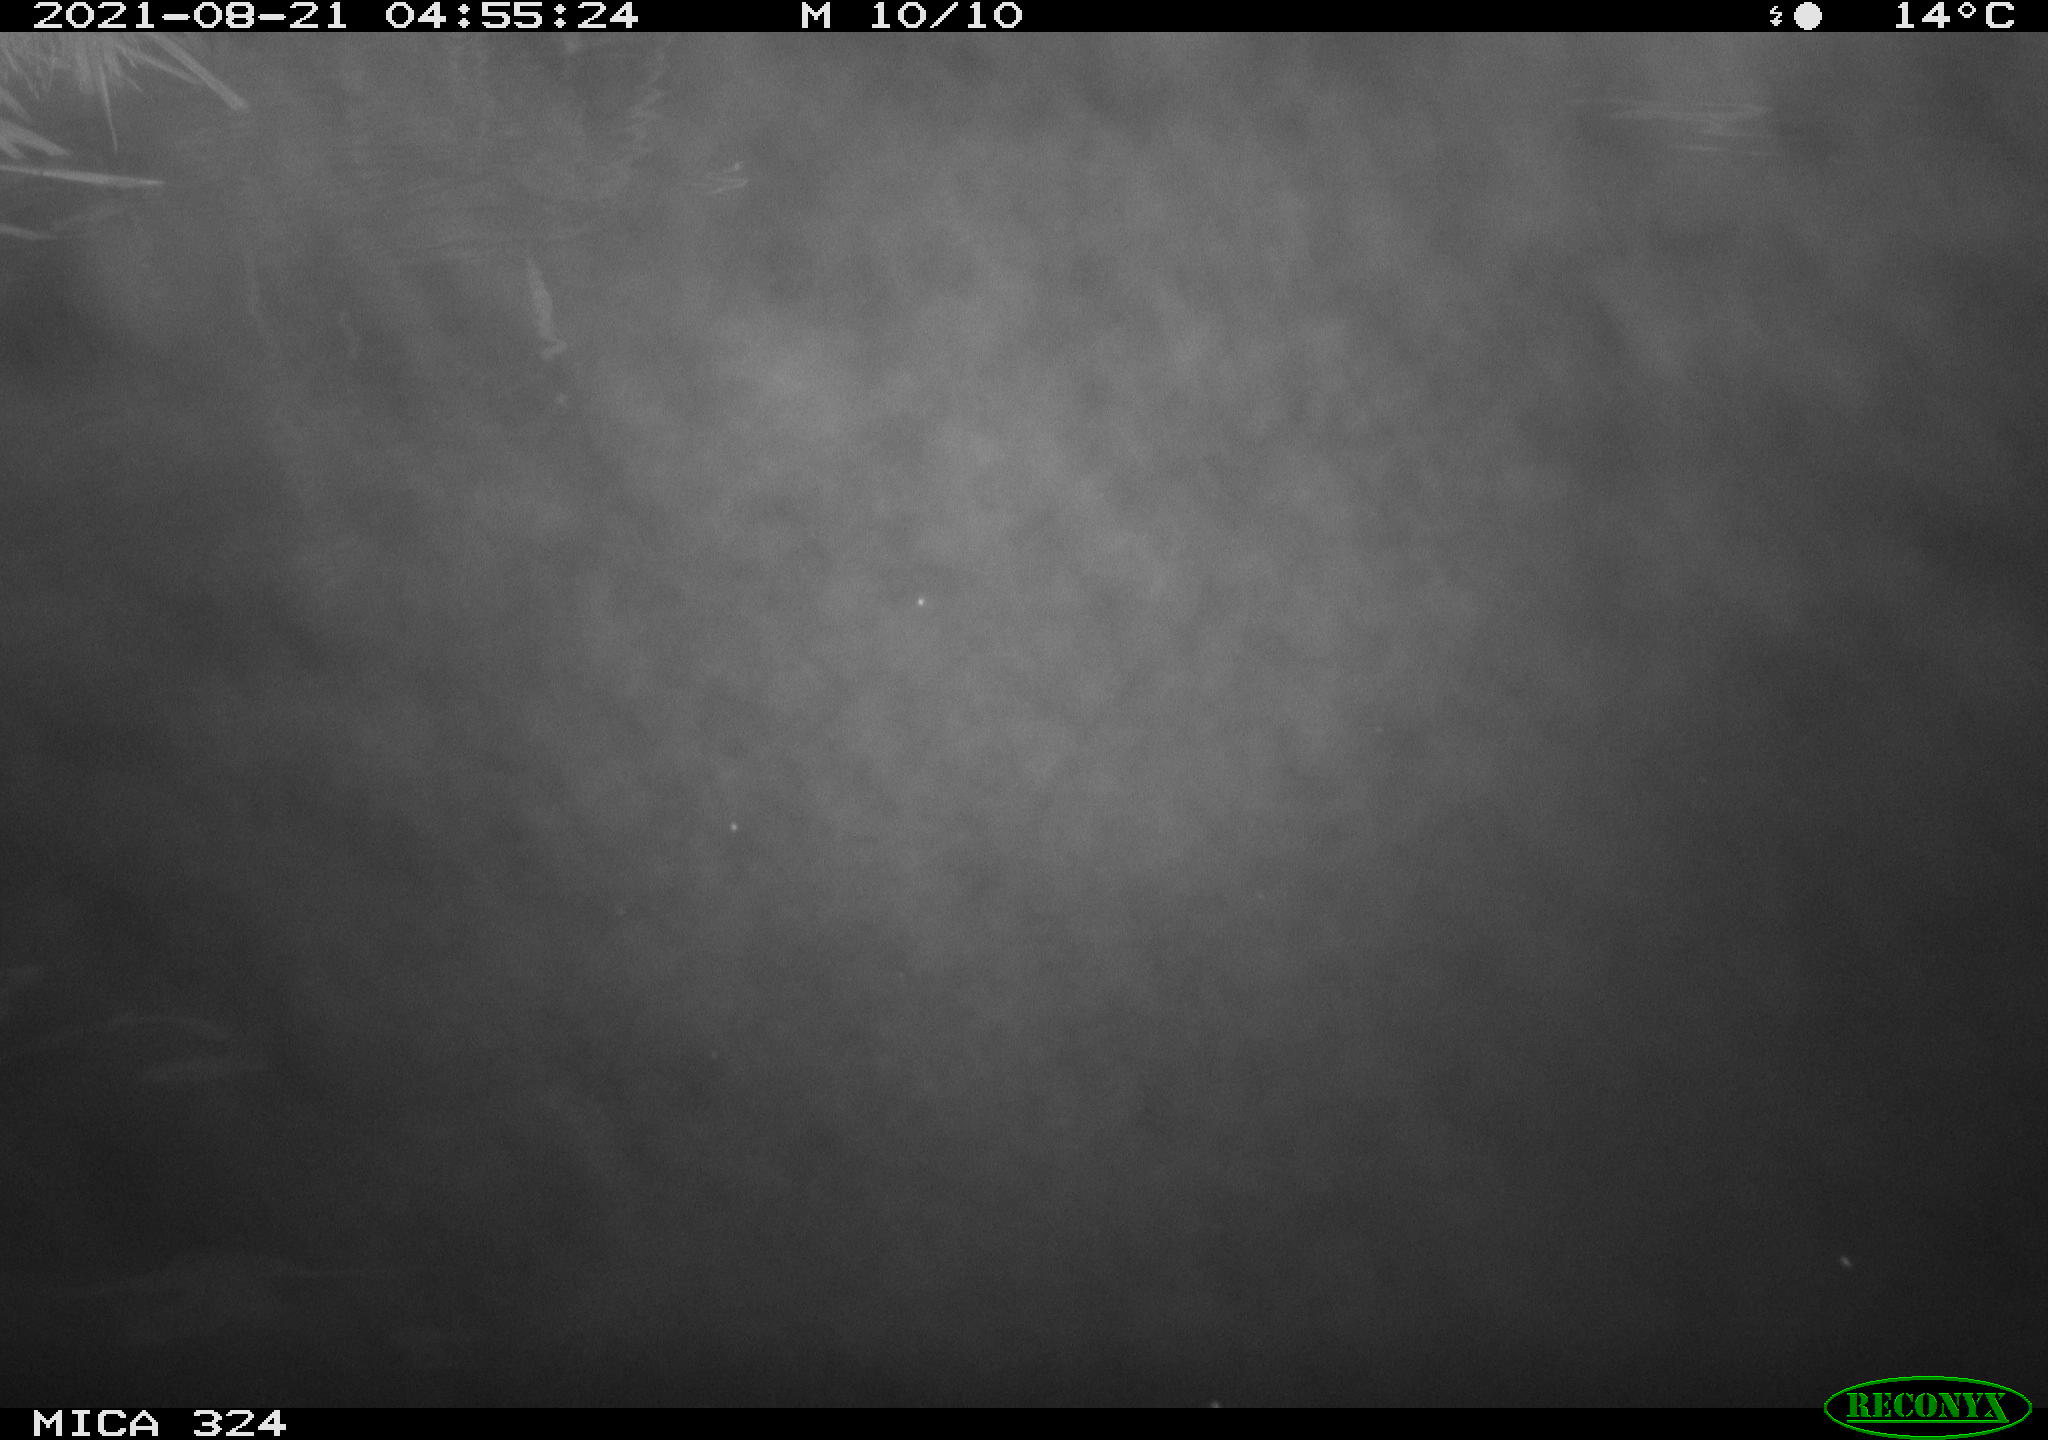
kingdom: Animalia
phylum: Chordata
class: Mammalia
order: Rodentia
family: Cricetidae
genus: Ondatra
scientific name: Ondatra zibethicus
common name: Muskrat
